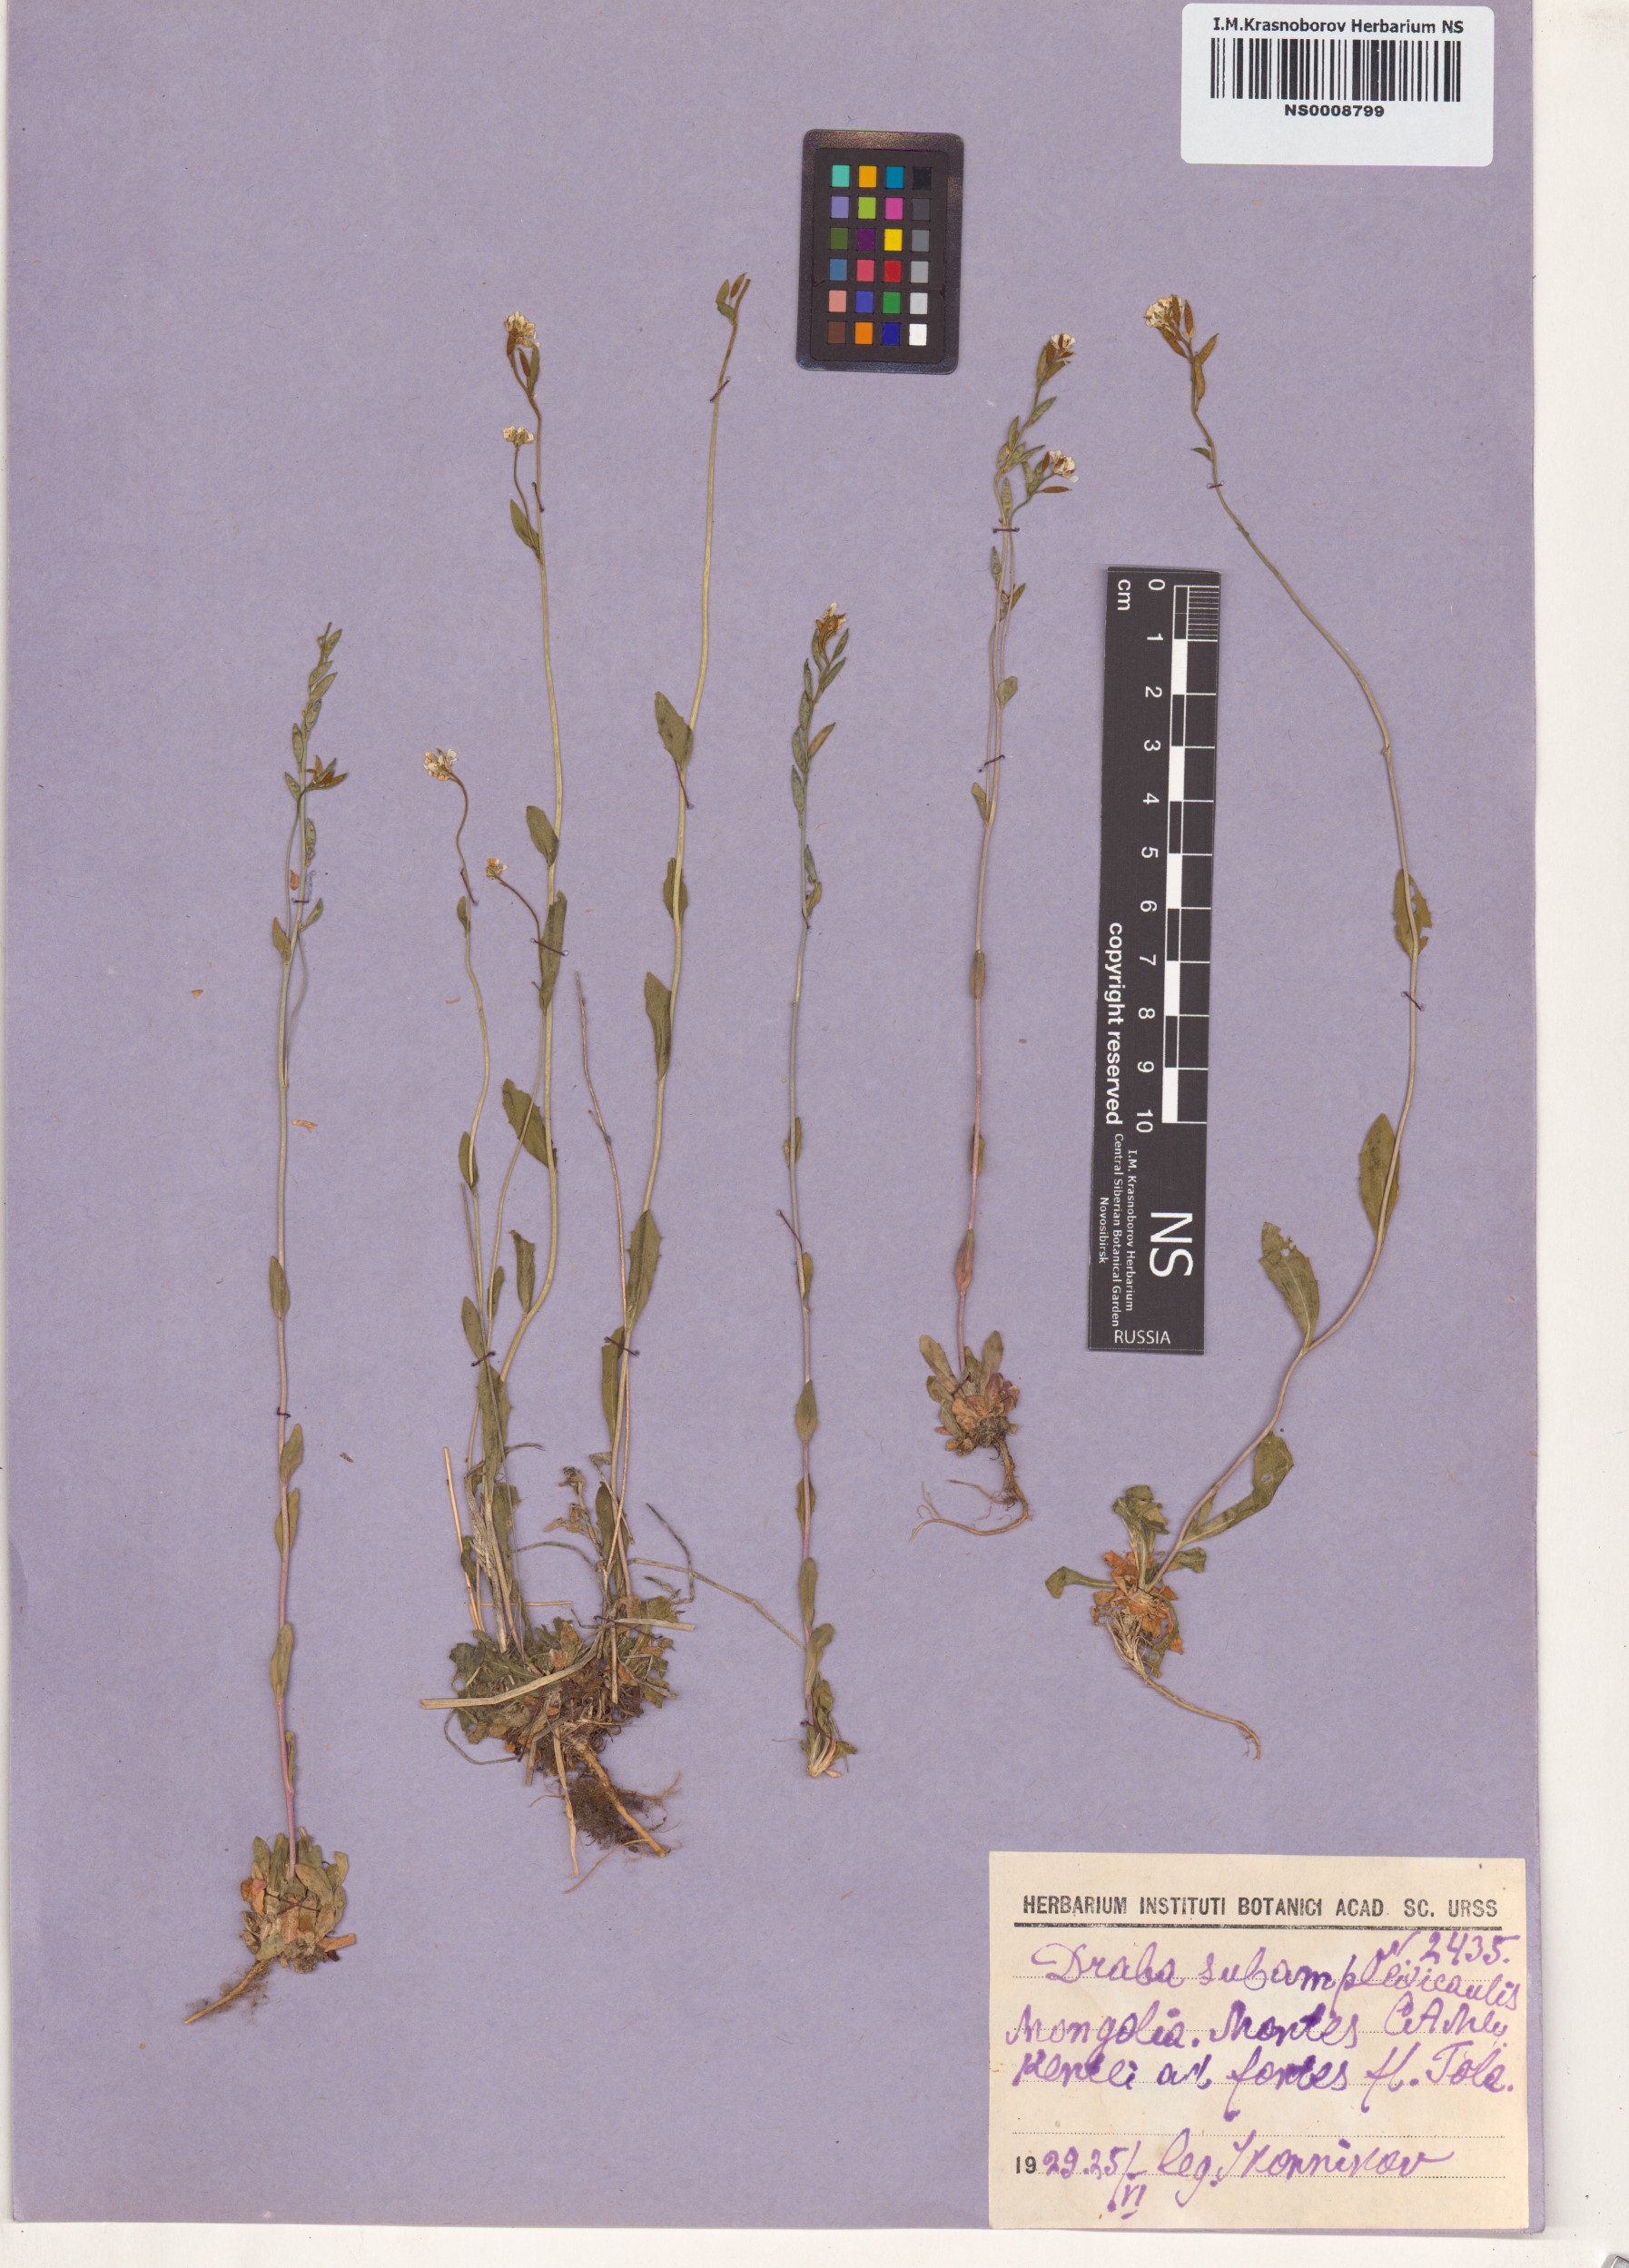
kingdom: Plantae
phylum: Tracheophyta
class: Magnoliopsida
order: Brassicales
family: Brassicaceae
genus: Draba
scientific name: Draba subamplexicaulis
